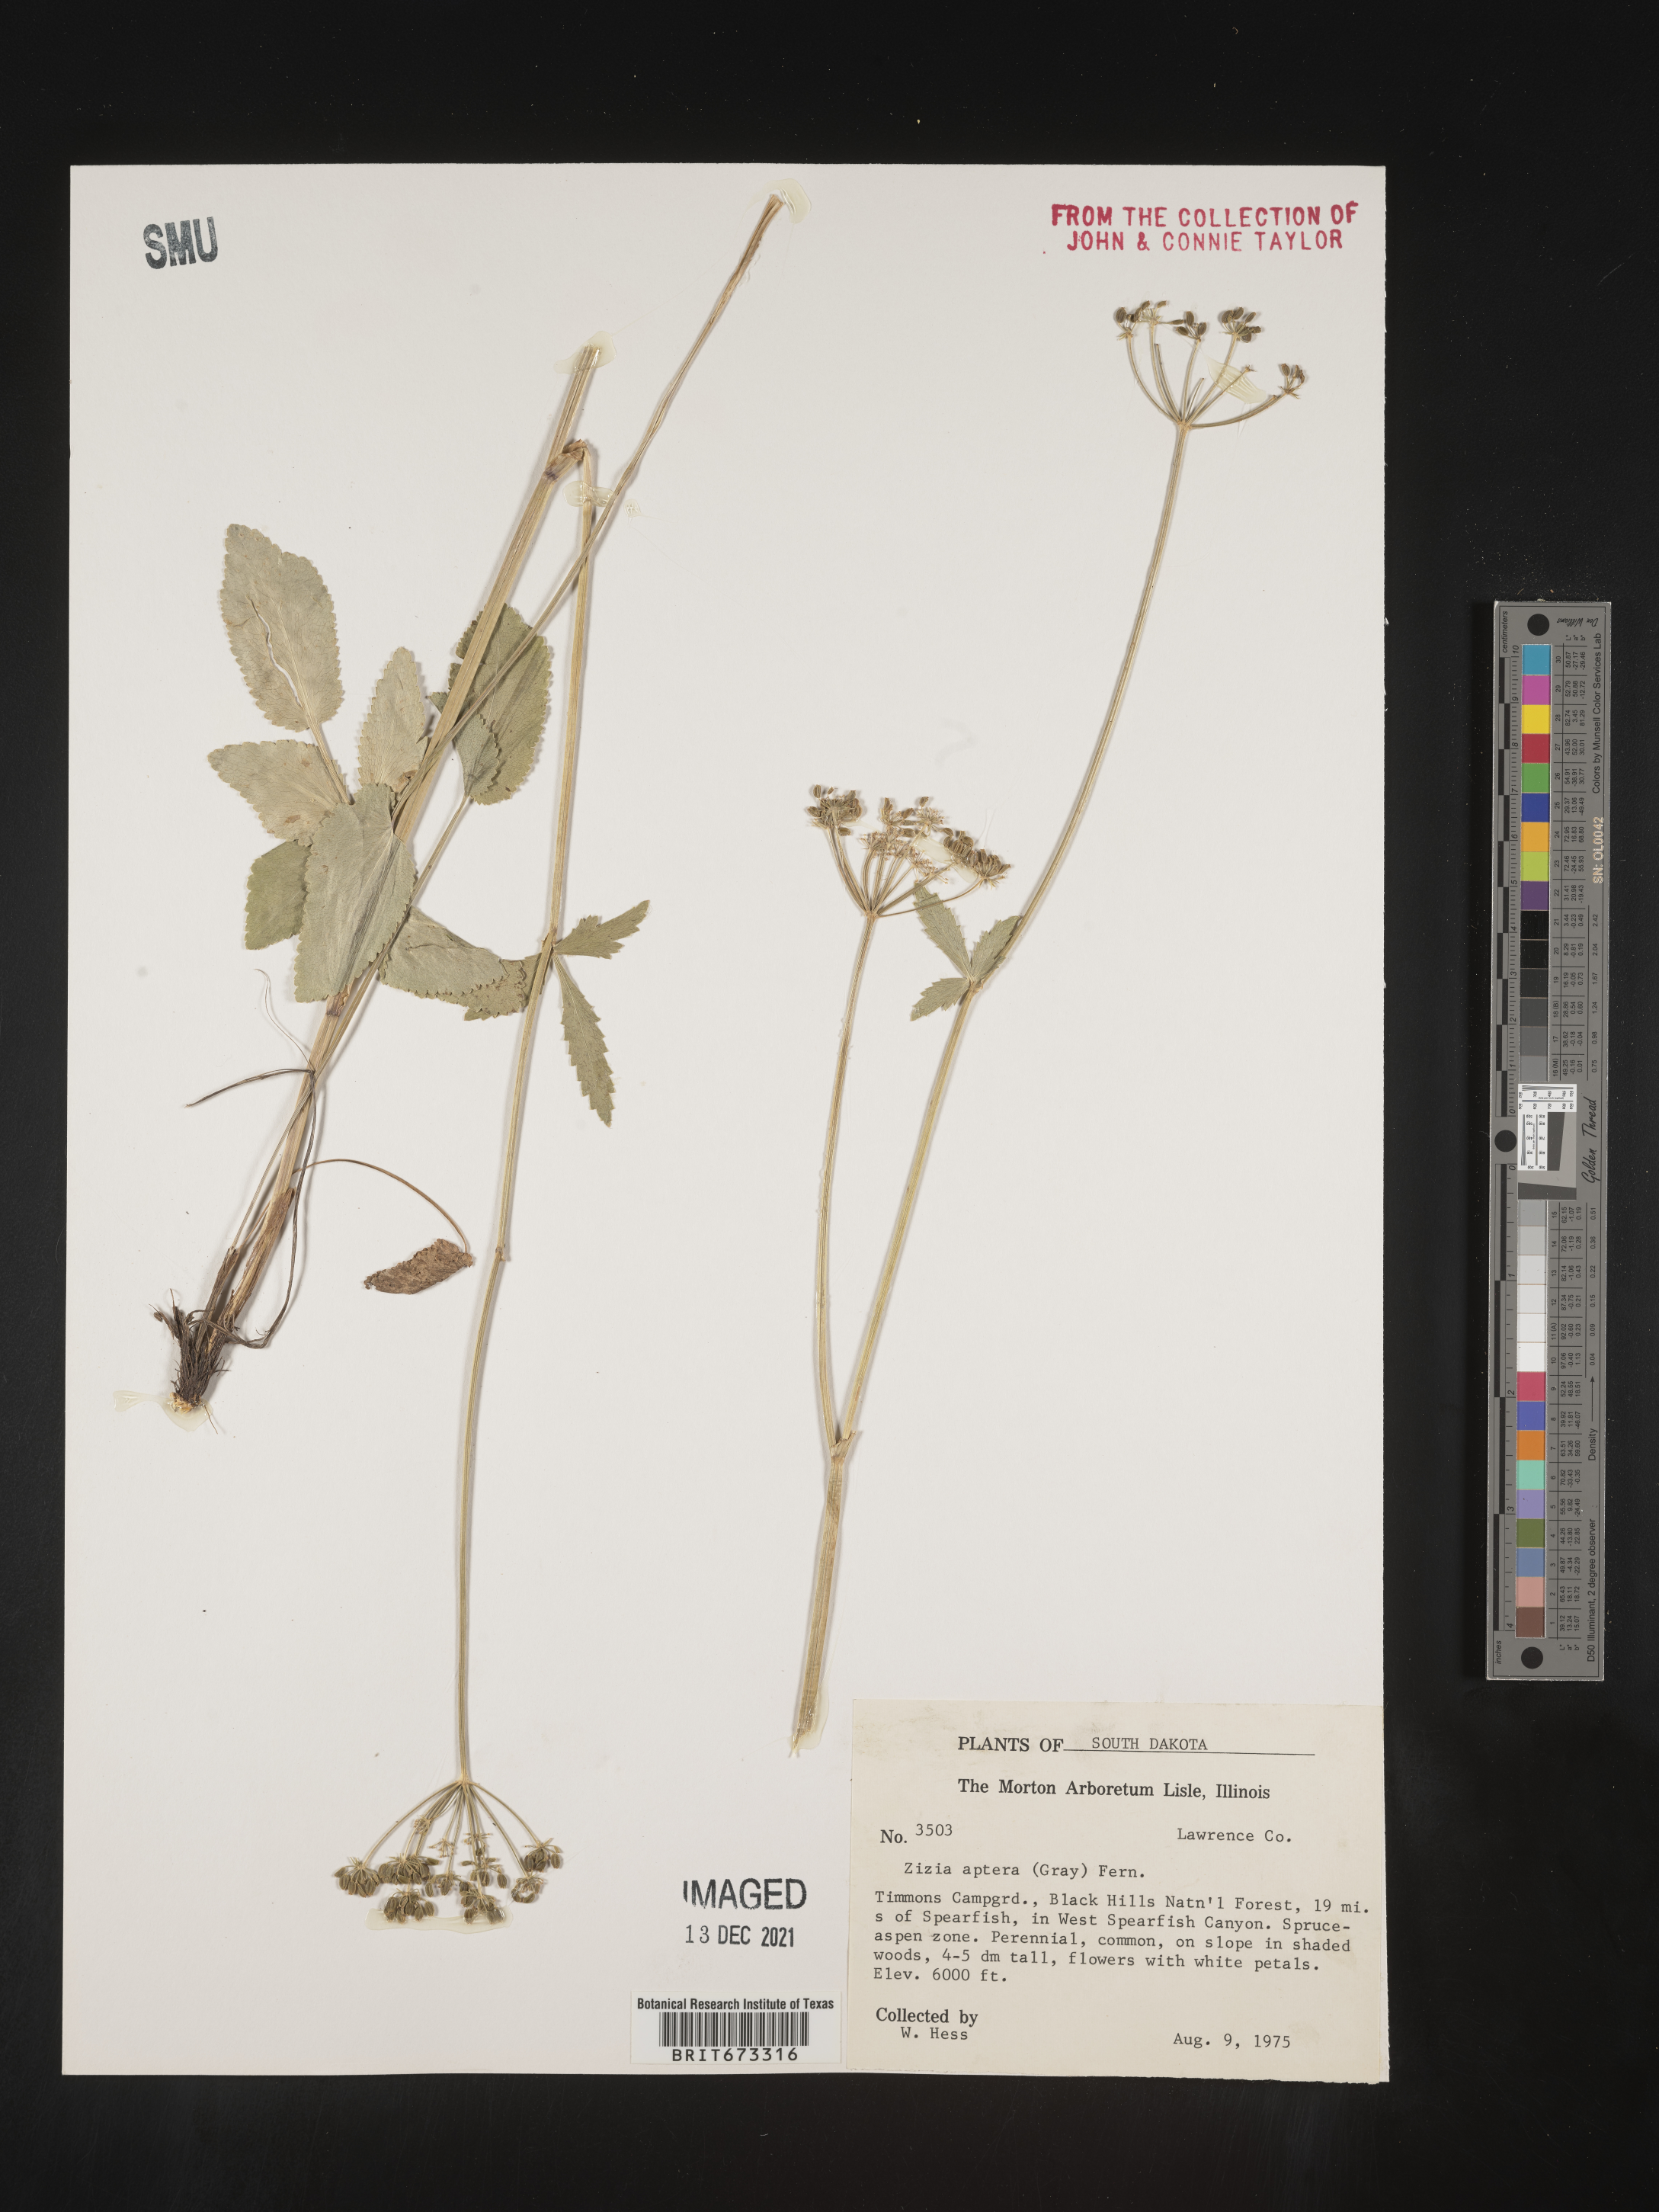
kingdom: Plantae
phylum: Tracheophyta
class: Magnoliopsida
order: Apiales
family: Apiaceae
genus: Zizia
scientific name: Zizia aptera
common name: Heart-leaved alexanders
